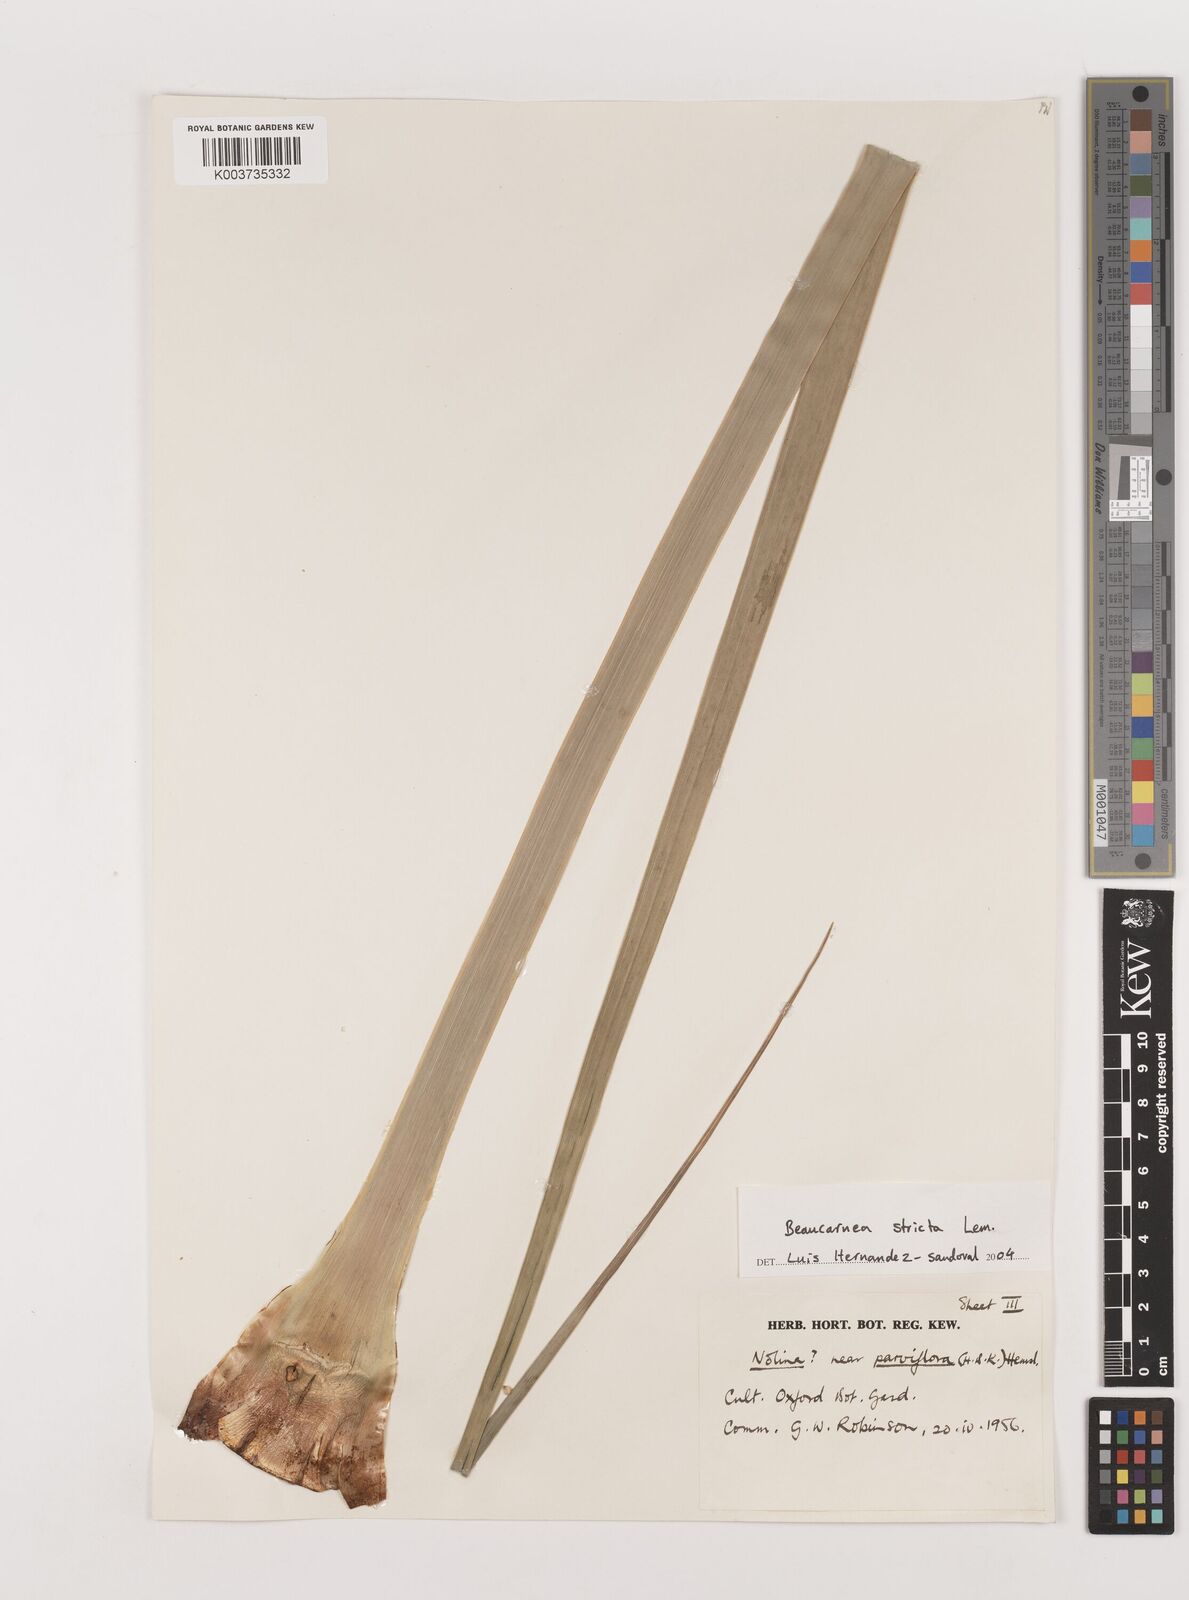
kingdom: Plantae
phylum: Tracheophyta
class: Liliopsida
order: Asparagales
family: Asparagaceae
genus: Beaucarnea
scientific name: Beaucarnea stricta
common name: Bottle palm
